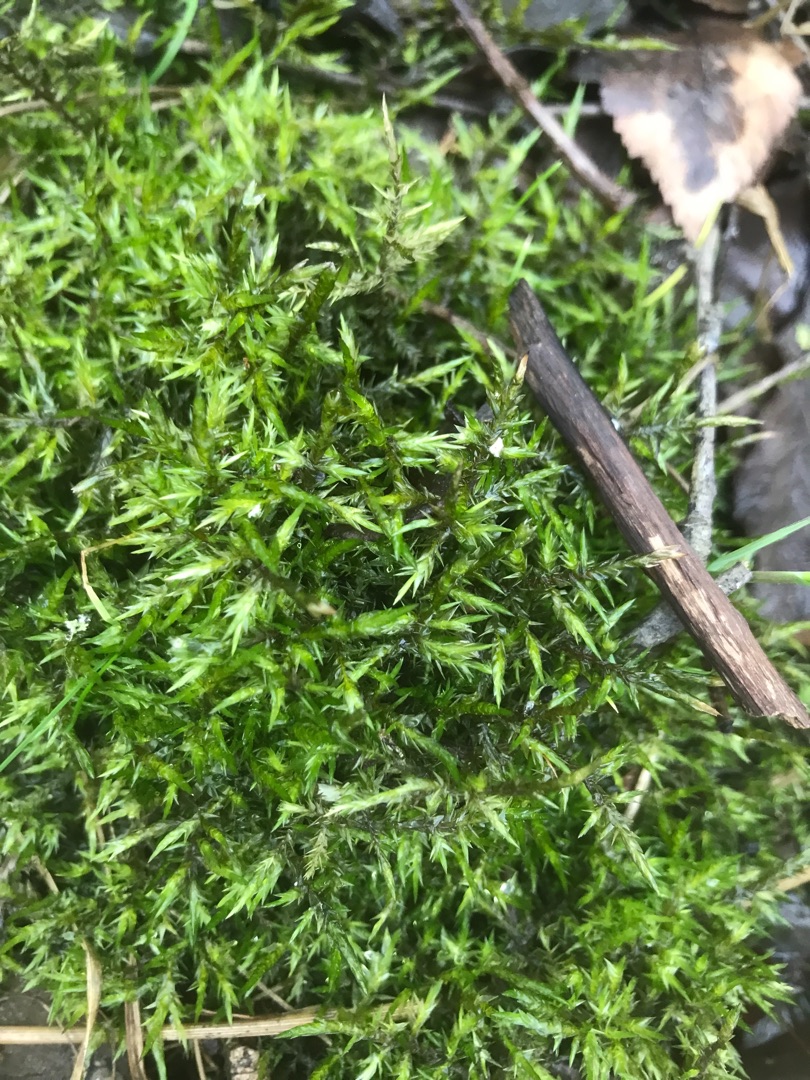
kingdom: Plantae
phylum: Bryophyta
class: Bryopsida
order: Hypnales
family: Pylaisiaceae
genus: Calliergonella
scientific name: Calliergonella cuspidata
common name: Spids spydmos
